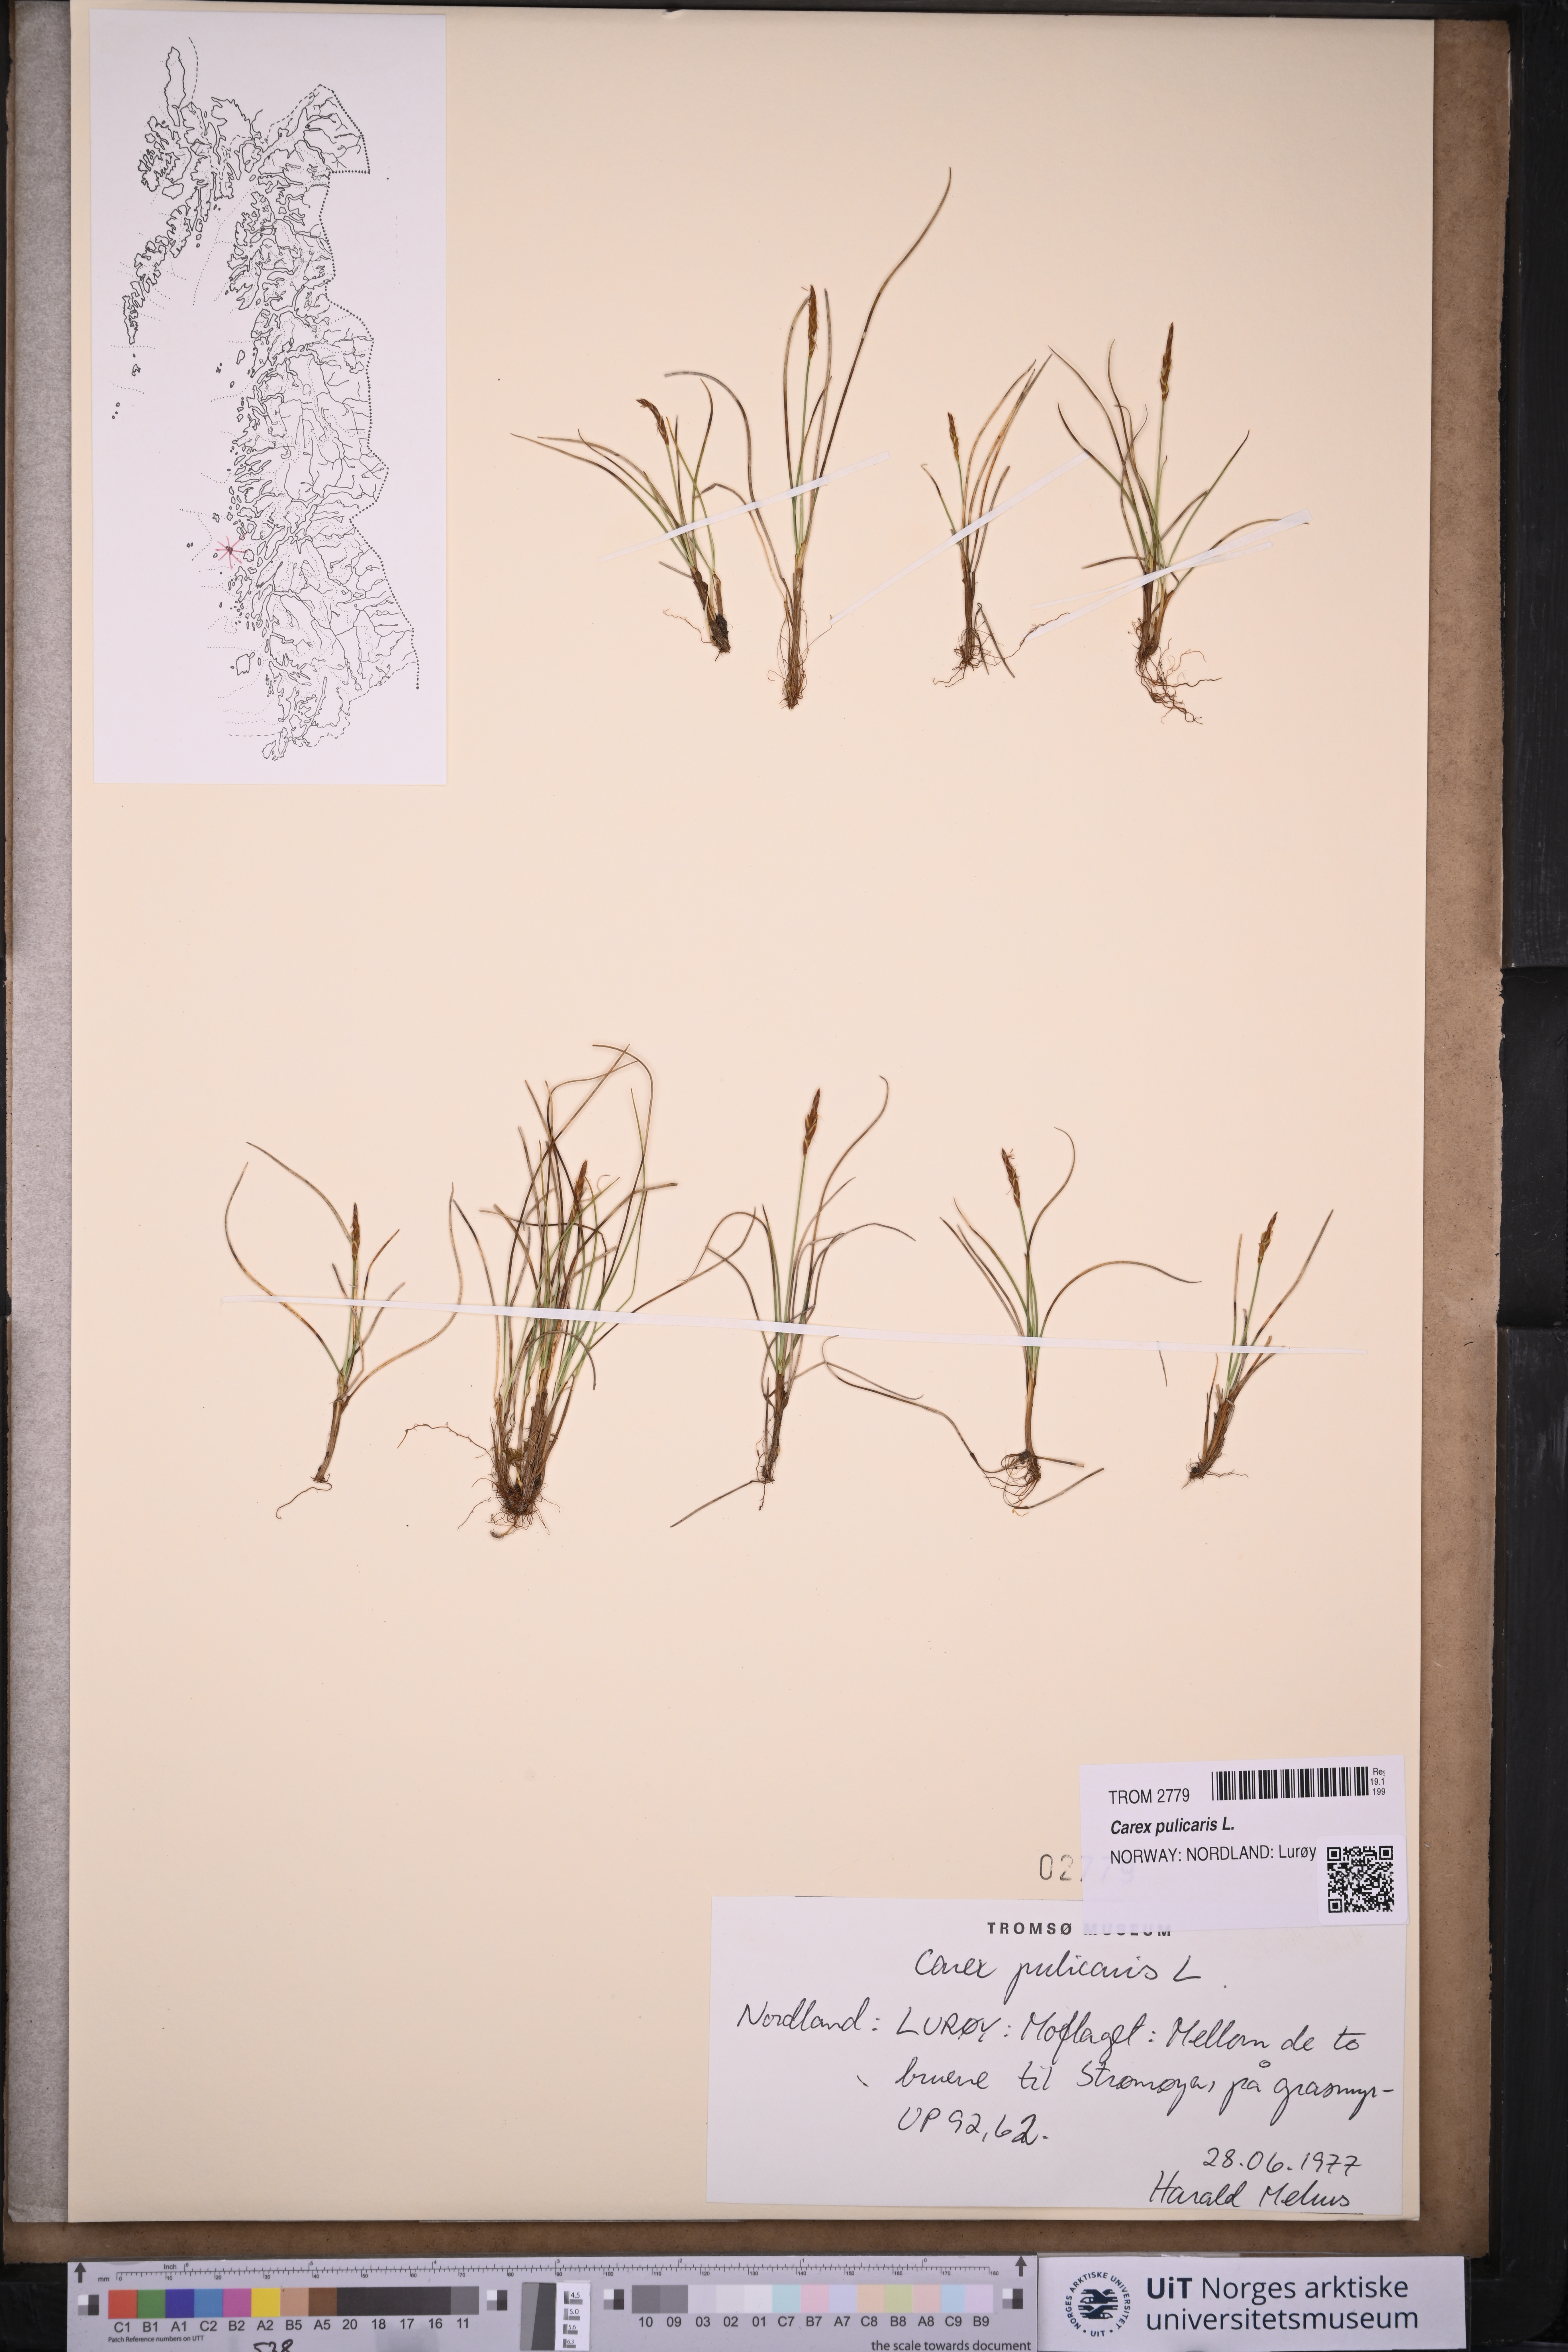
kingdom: Plantae
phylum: Tracheophyta
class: Liliopsida
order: Poales
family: Cyperaceae
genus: Carex
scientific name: Carex pulicaris
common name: Flea sedge
